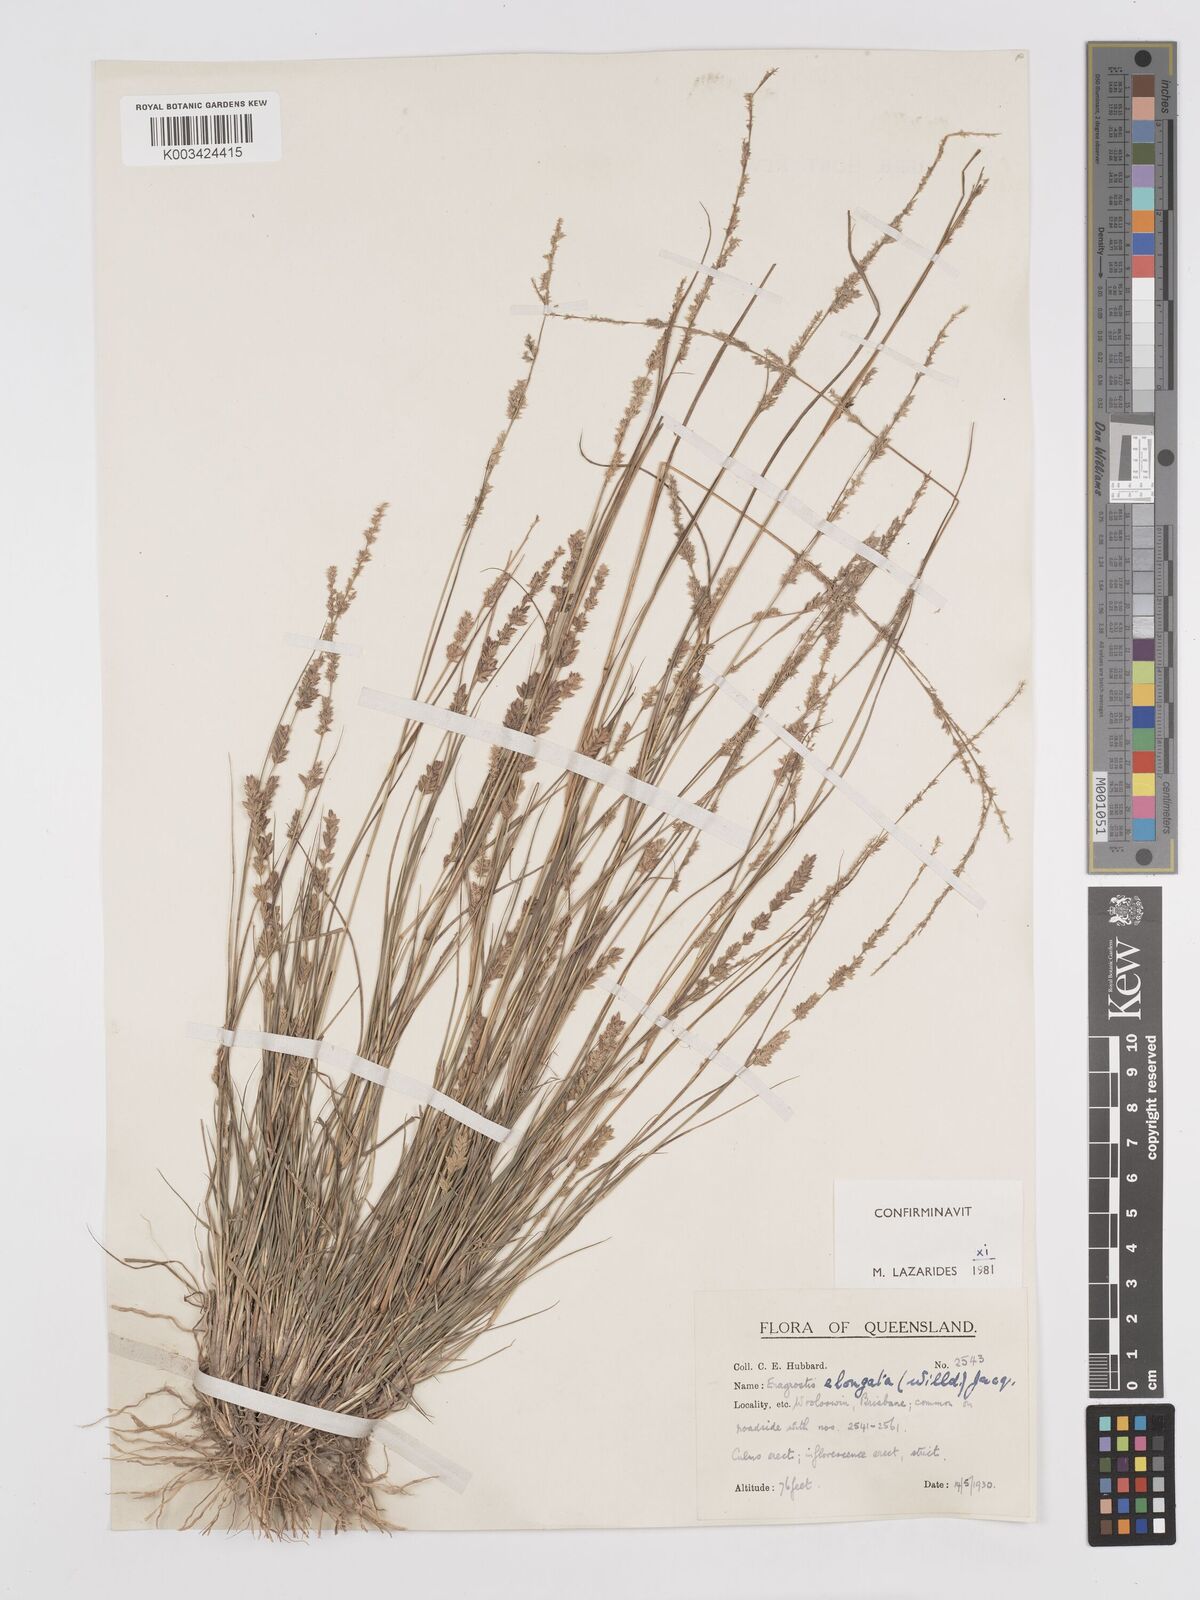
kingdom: Plantae
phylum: Tracheophyta
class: Liliopsida
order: Poales
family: Poaceae
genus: Eragrostis
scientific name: Eragrostis elongata
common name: Long lovegrass
